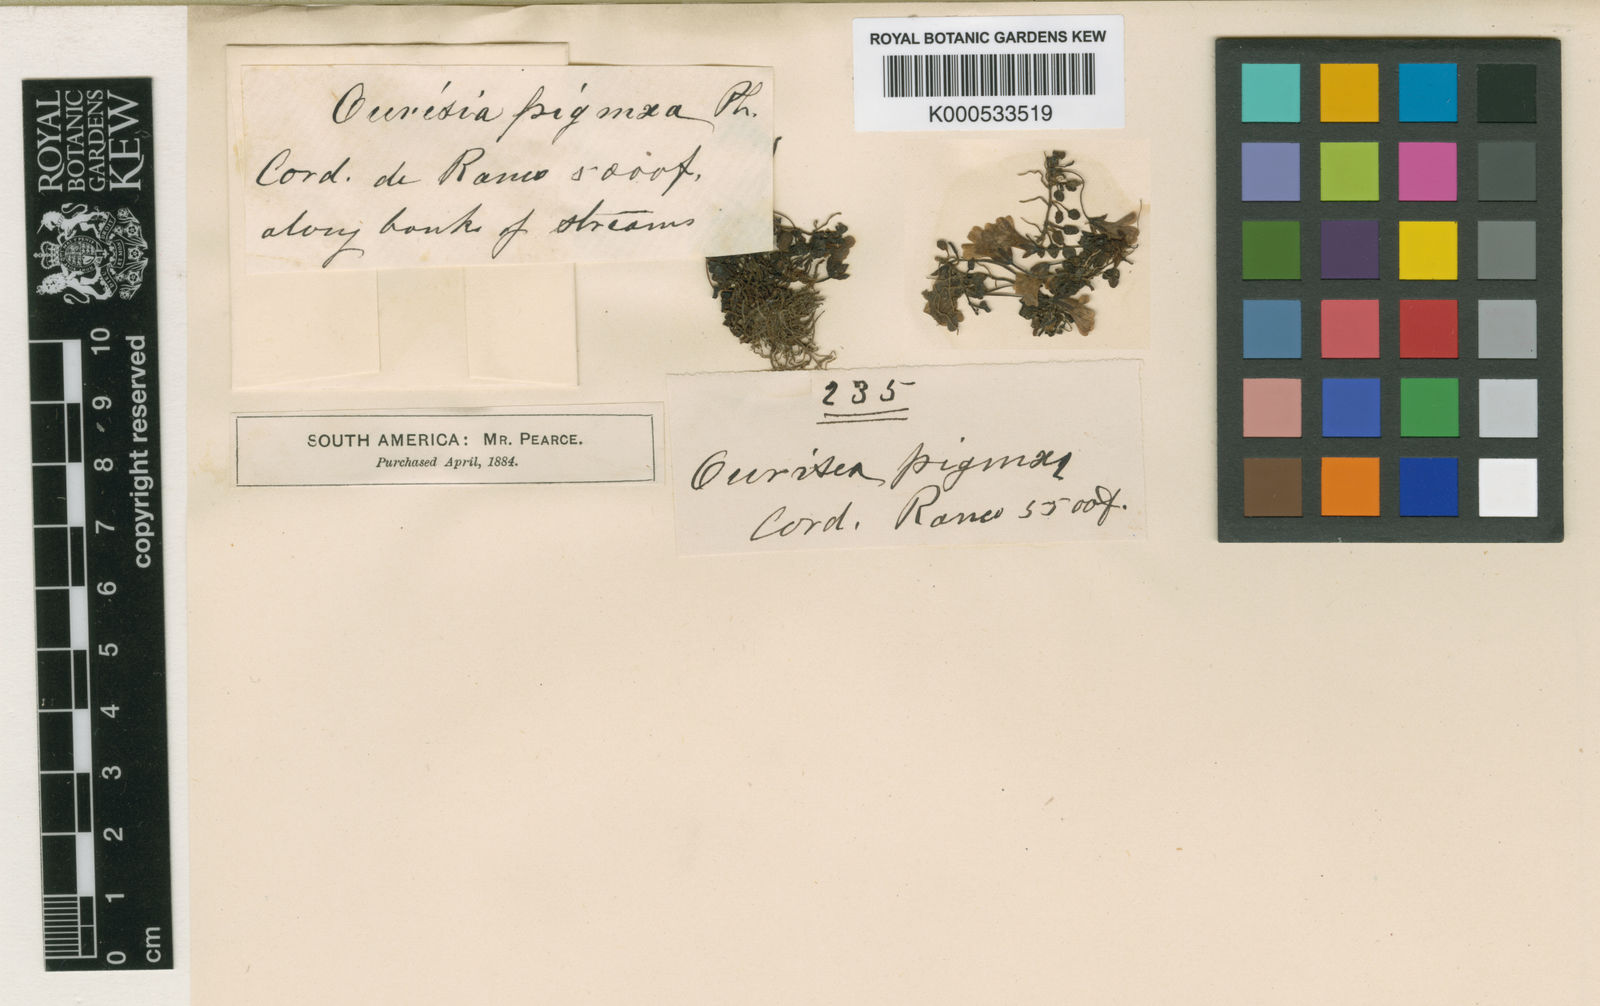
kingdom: Plantae
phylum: Tracheophyta
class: Magnoliopsida
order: Lamiales
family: Plantaginaceae
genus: Ourisia
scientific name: Ourisia pygmaea
